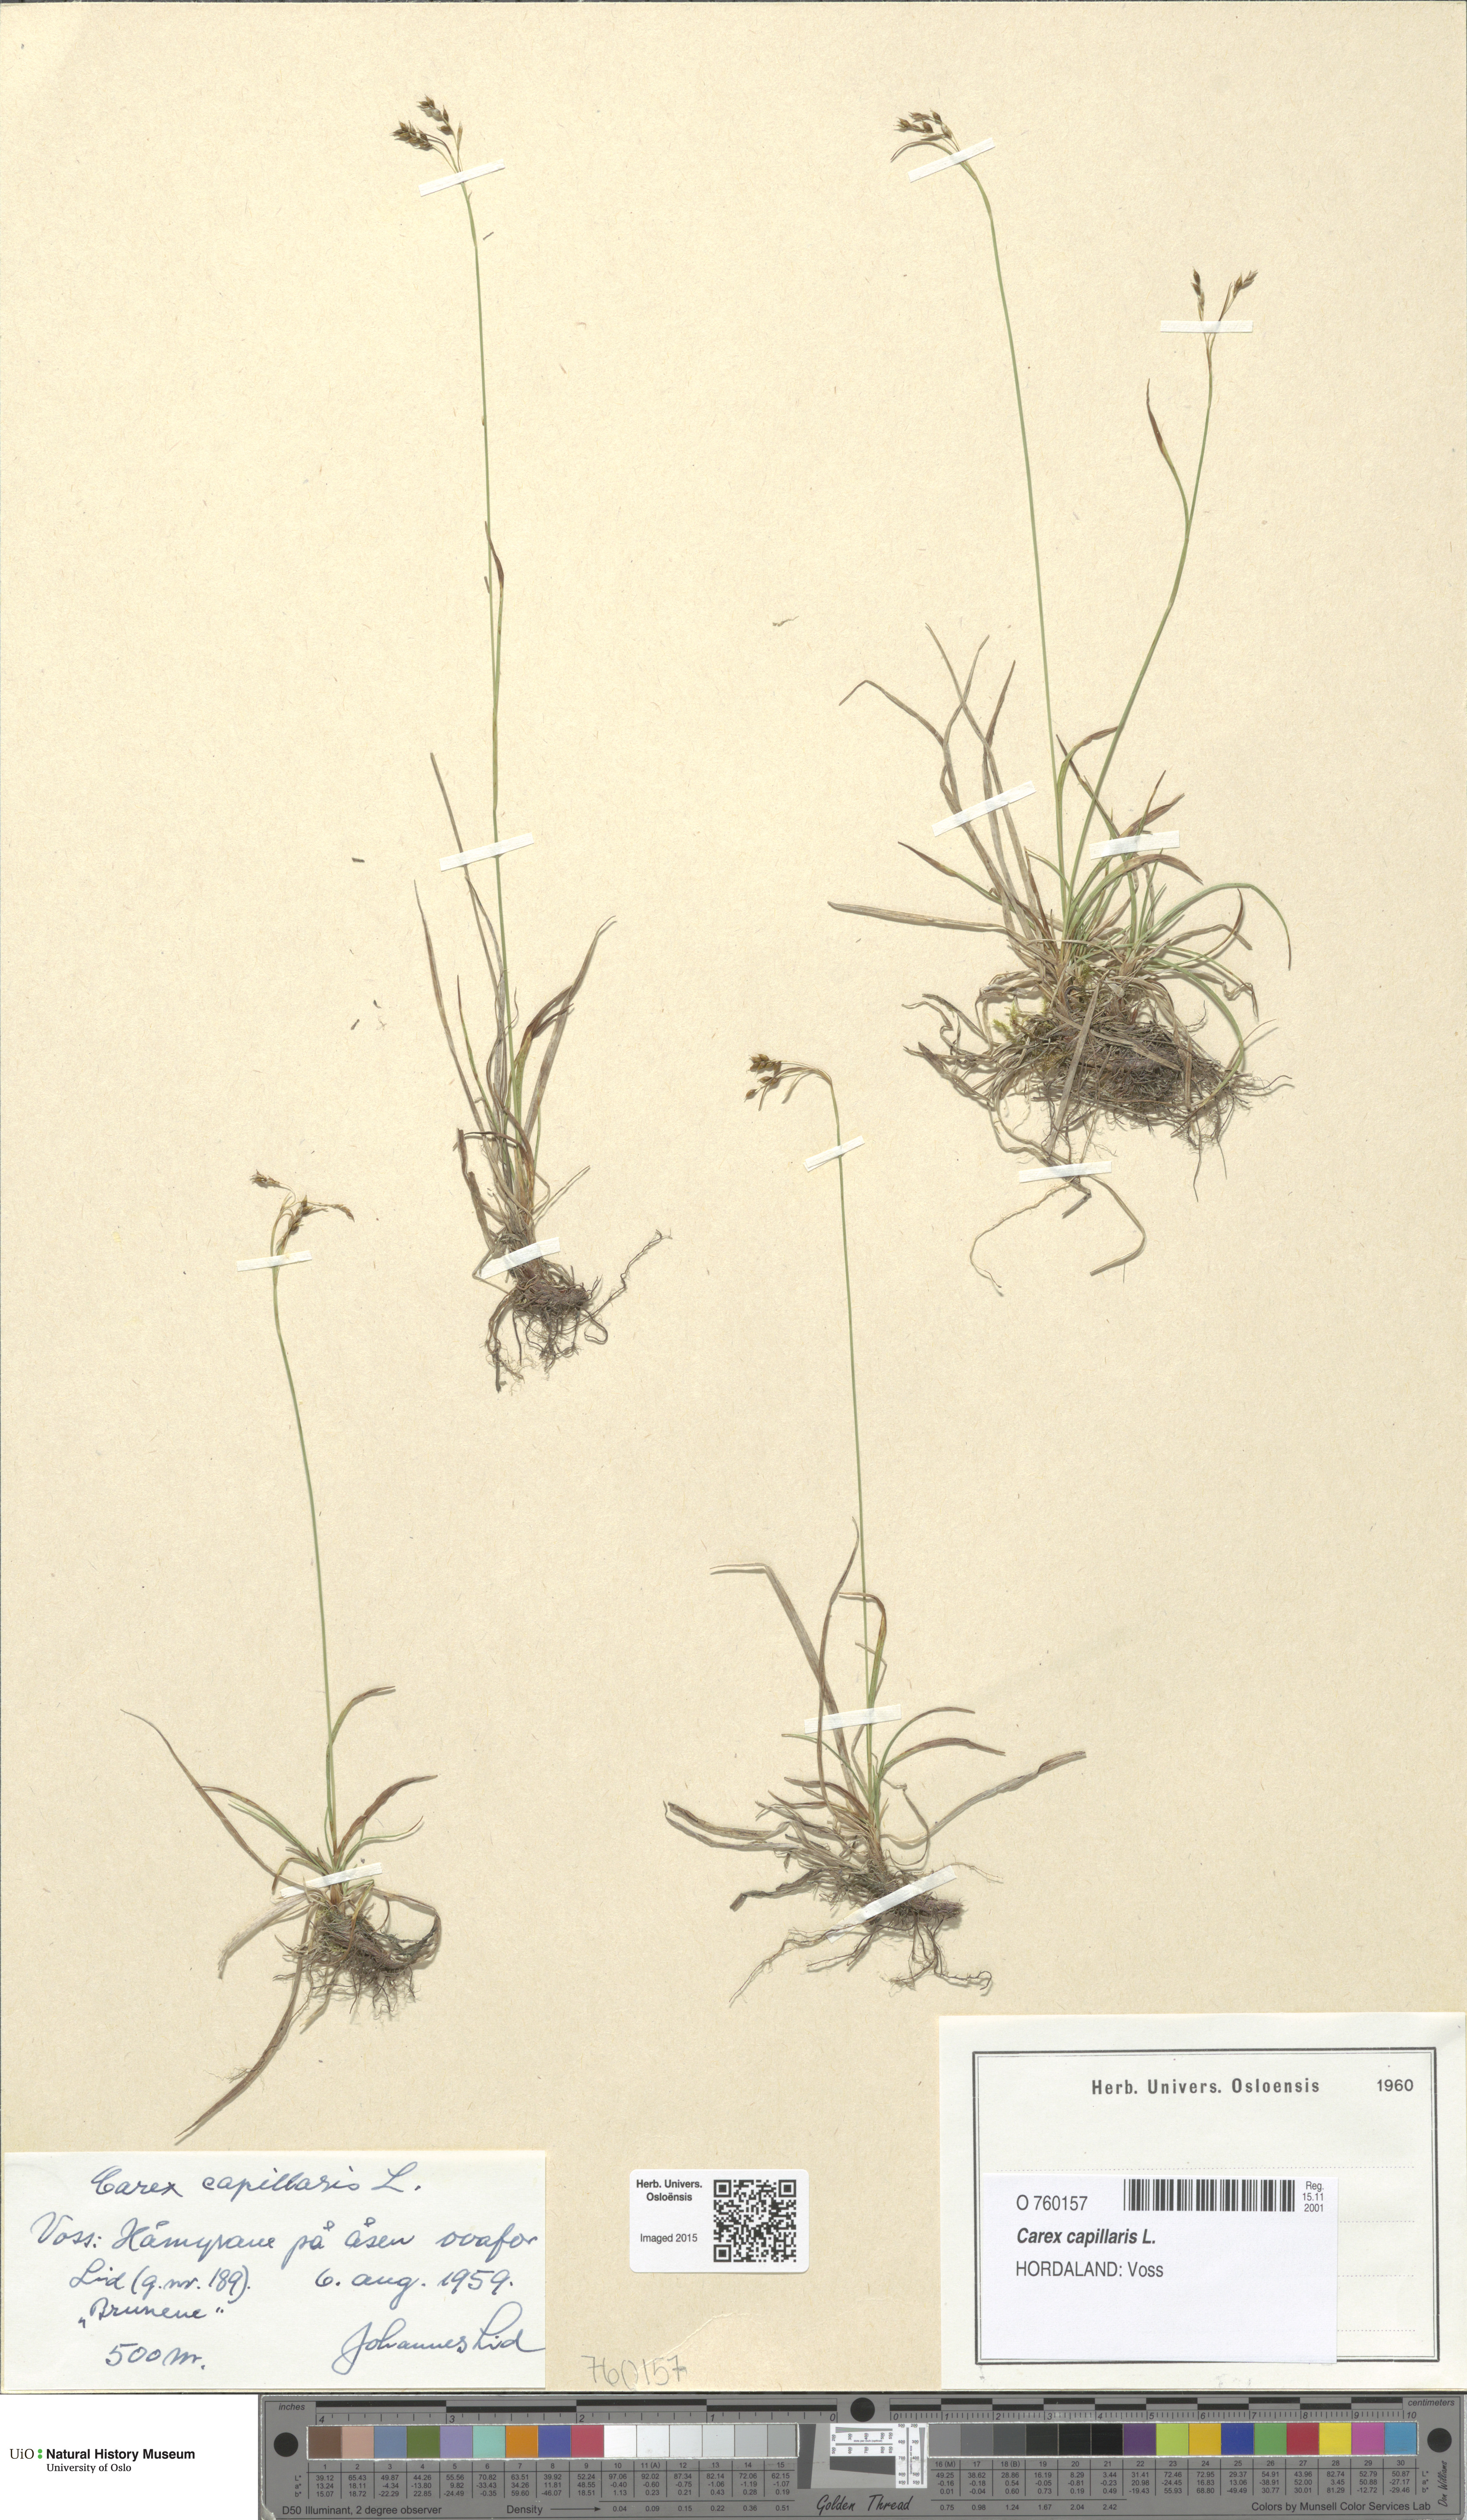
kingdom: Plantae
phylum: Tracheophyta
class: Liliopsida
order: Poales
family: Cyperaceae
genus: Carex
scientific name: Carex capillaris
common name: Hair sedge
